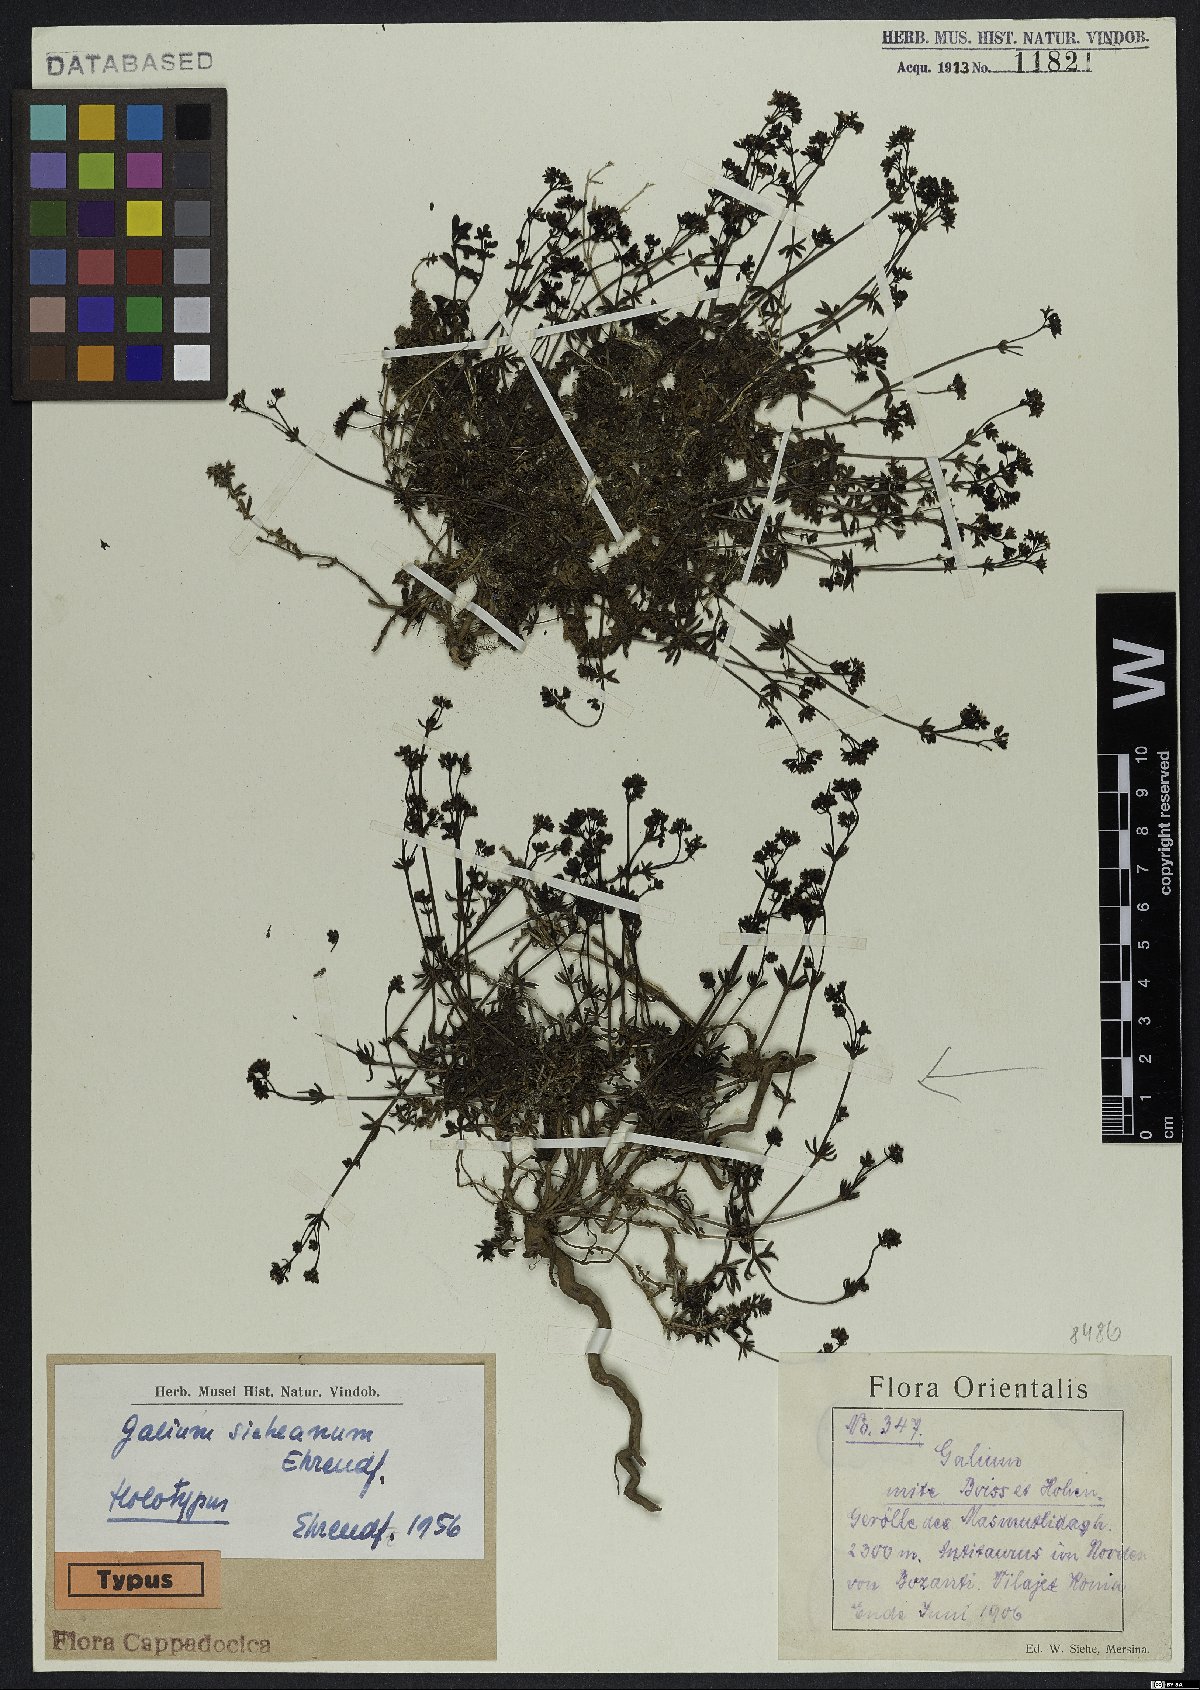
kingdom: Plantae
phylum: Tracheophyta
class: Magnoliopsida
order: Gentianales
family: Rubiaceae
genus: Galium
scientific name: Galium sieheanum
